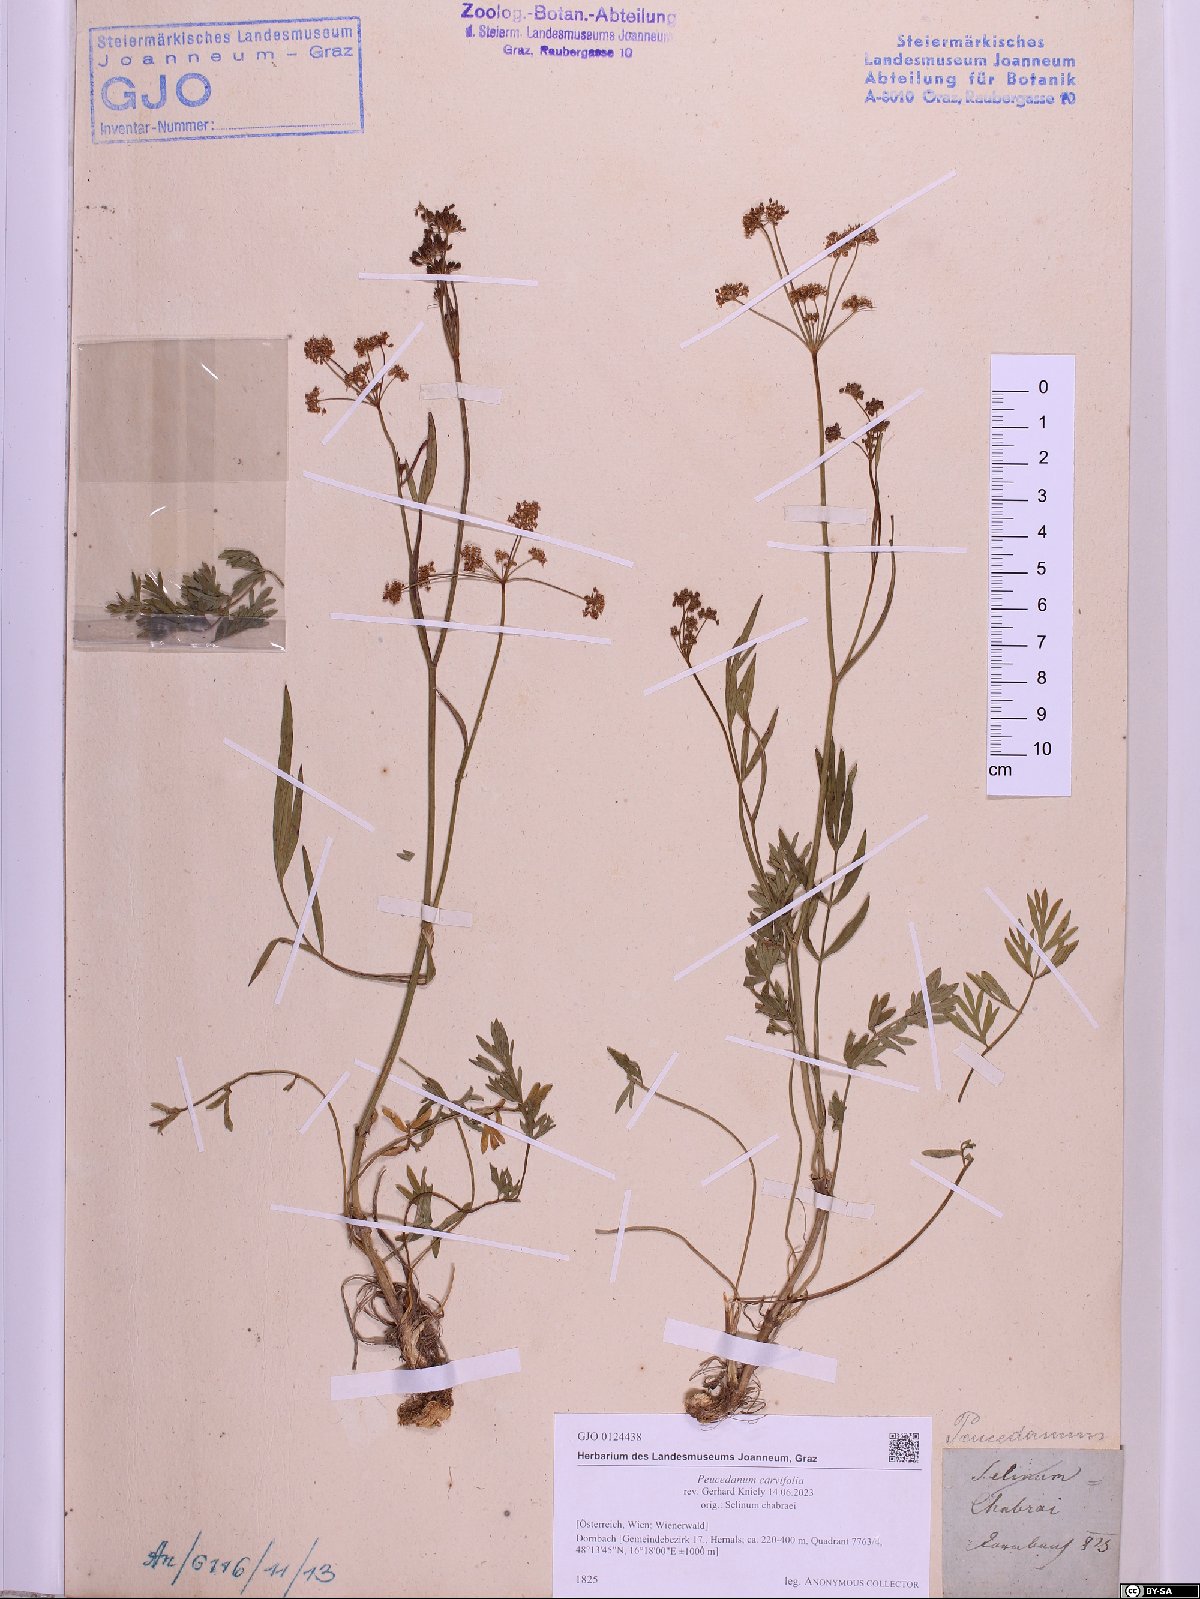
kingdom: Plantae
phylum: Tracheophyta
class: Magnoliopsida
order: Apiales
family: Apiaceae
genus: Dichoropetalum
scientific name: Dichoropetalum carvifolia
